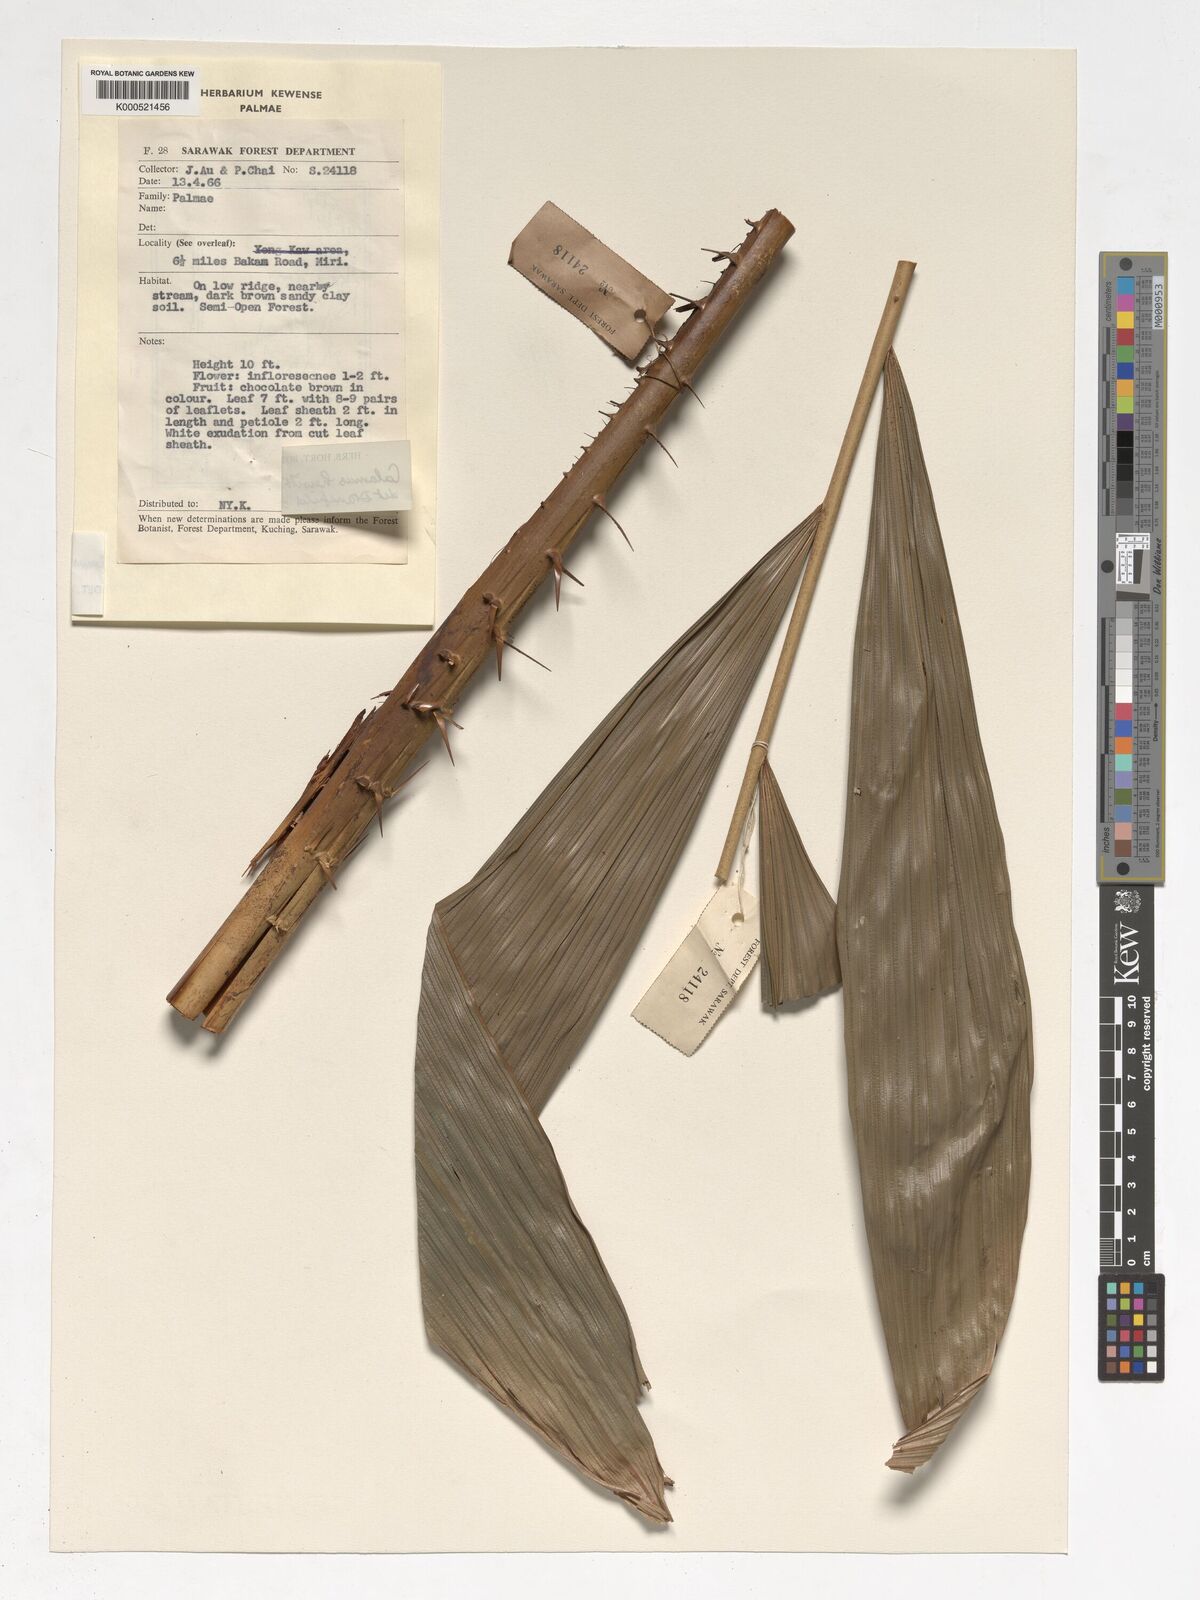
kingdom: Plantae
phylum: Tracheophyta
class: Liliopsida
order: Arecales
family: Arecaceae
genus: Calamus
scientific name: Calamus myriacanthus
